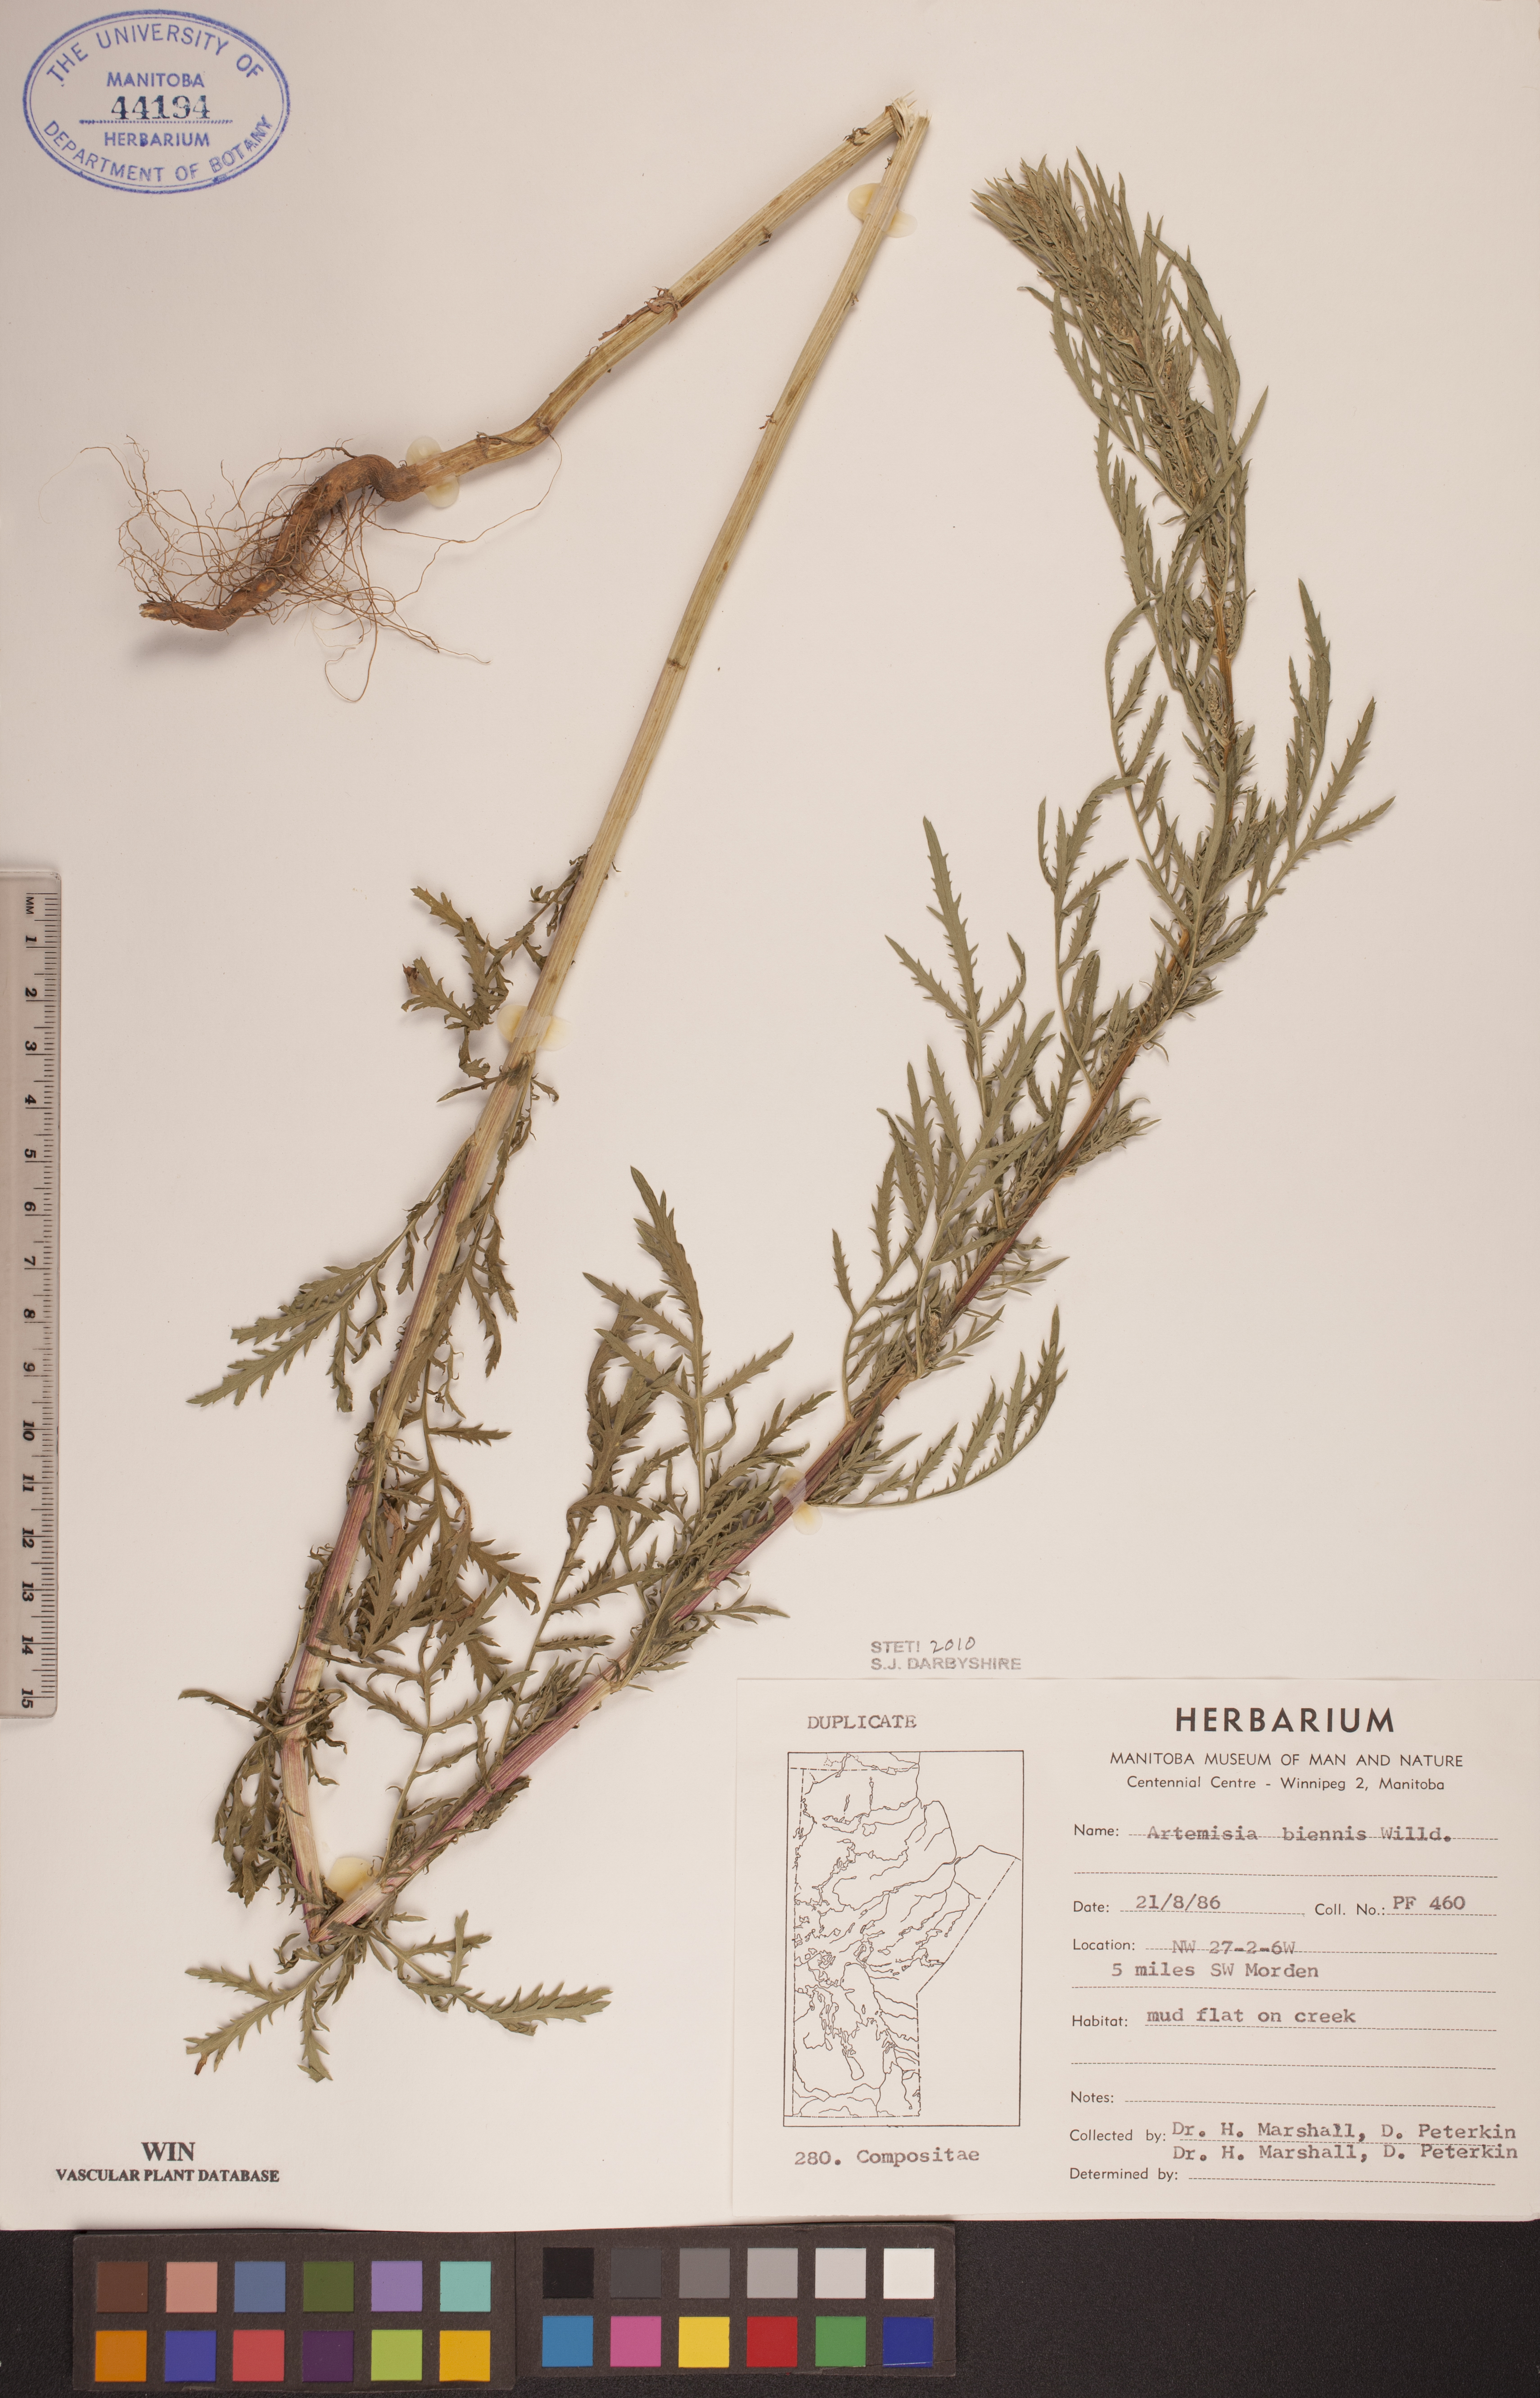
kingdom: Plantae
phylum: Tracheophyta
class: Magnoliopsida
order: Asterales
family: Asteraceae
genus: Artemisia
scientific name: Artemisia biennis
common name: Biennial wormwood
